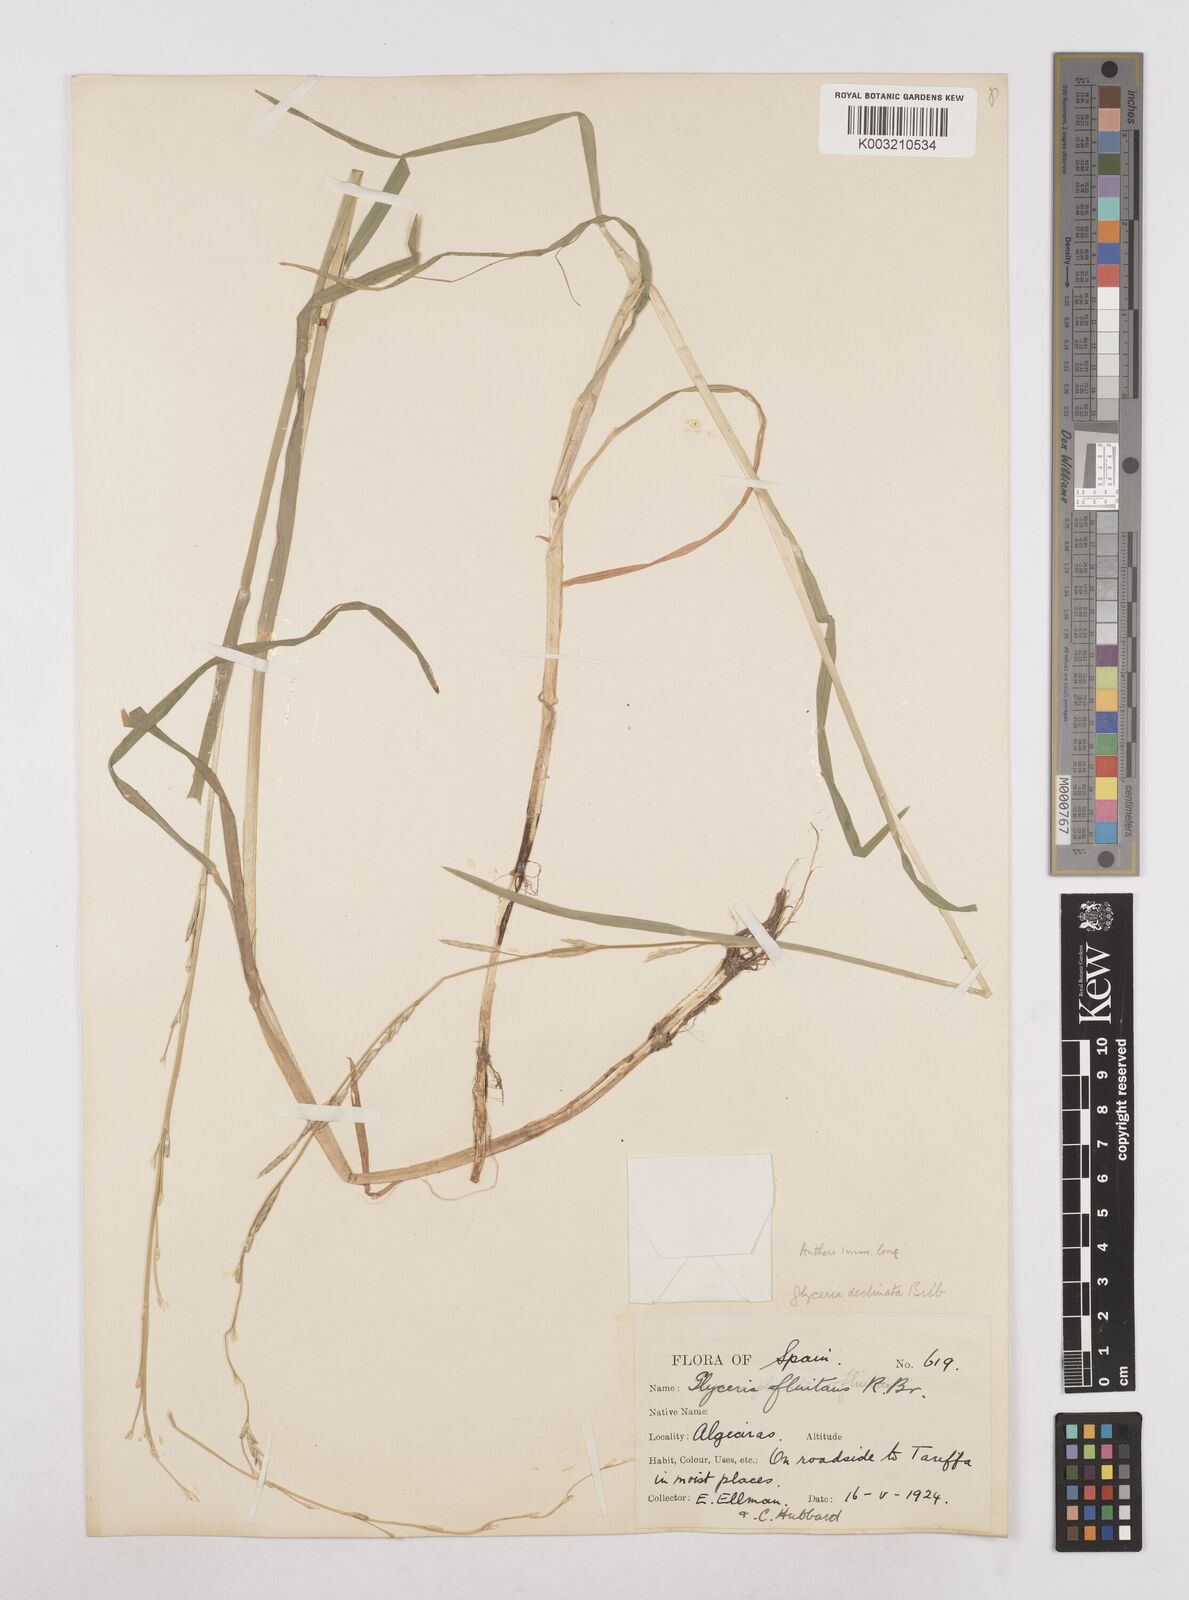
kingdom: Plantae
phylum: Tracheophyta
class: Liliopsida
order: Poales
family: Poaceae
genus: Glyceria
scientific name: Glyceria declinata
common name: Small sweet-grass
